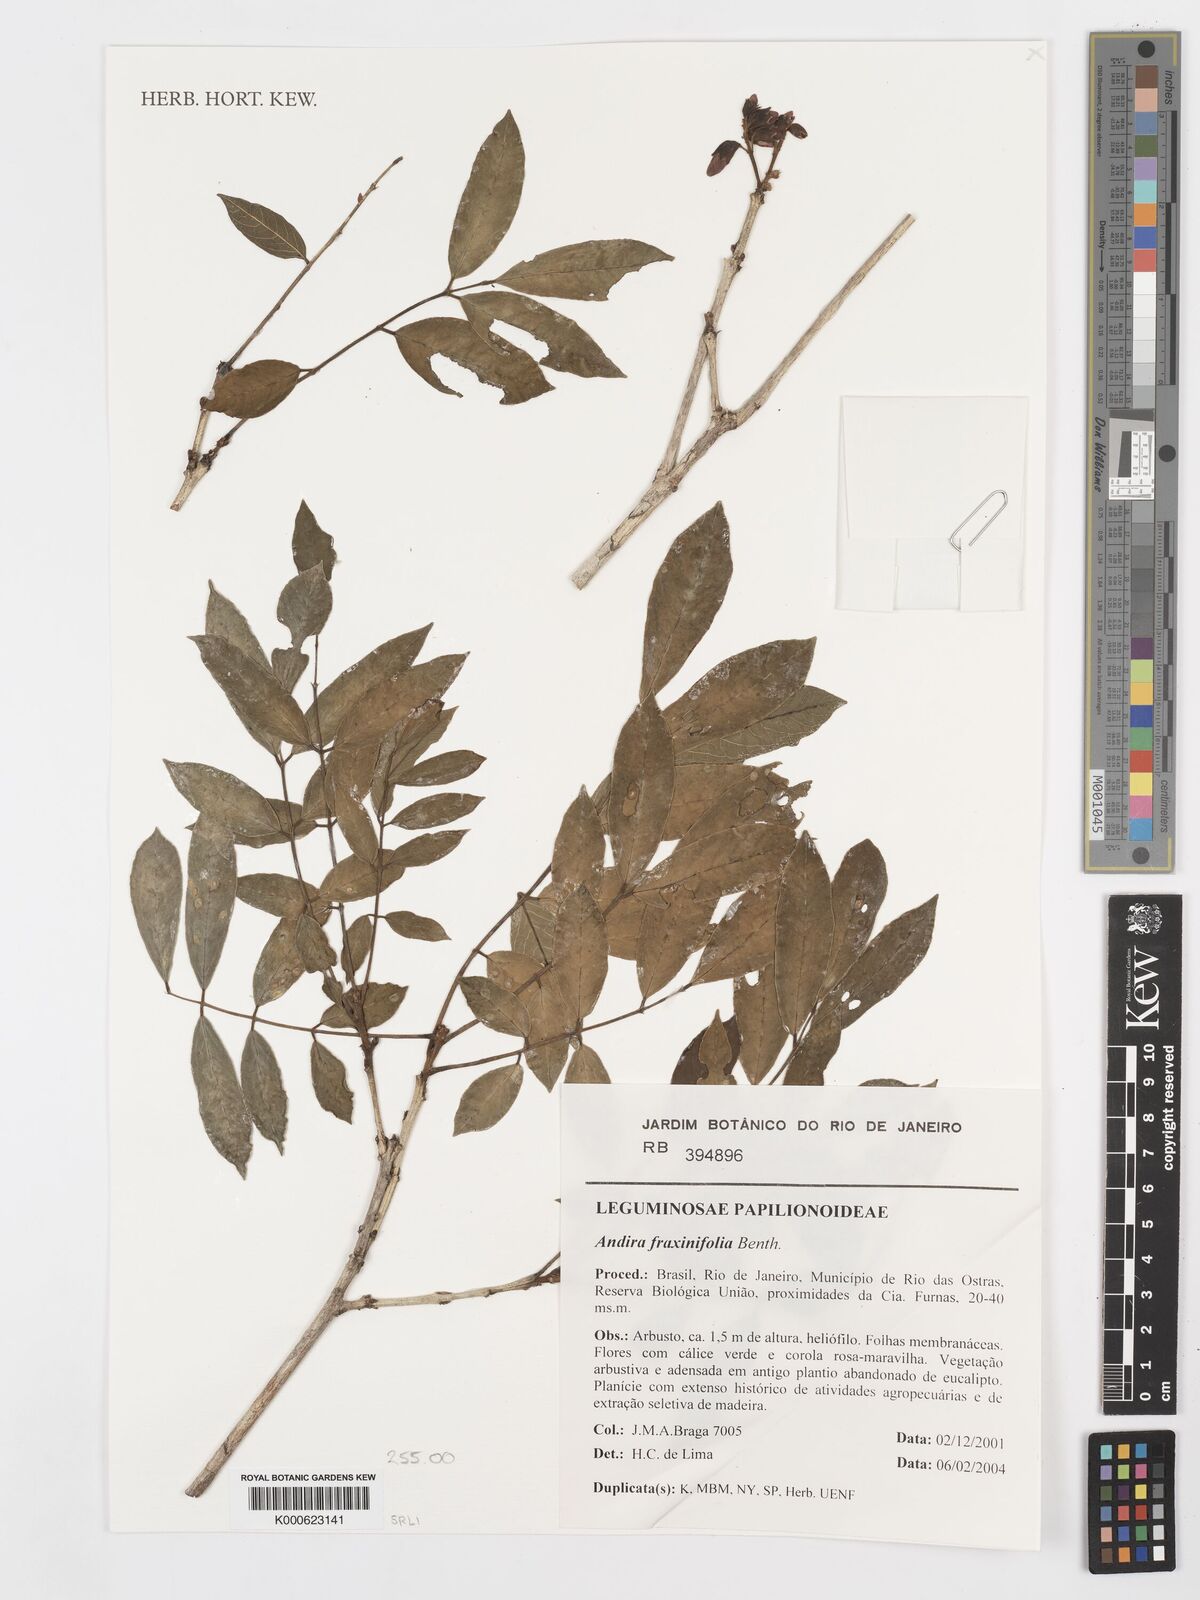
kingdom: Plantae
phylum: Tracheophyta
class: Magnoliopsida
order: Fabales
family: Fabaceae
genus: Andira
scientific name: Andira fraxinifolia
